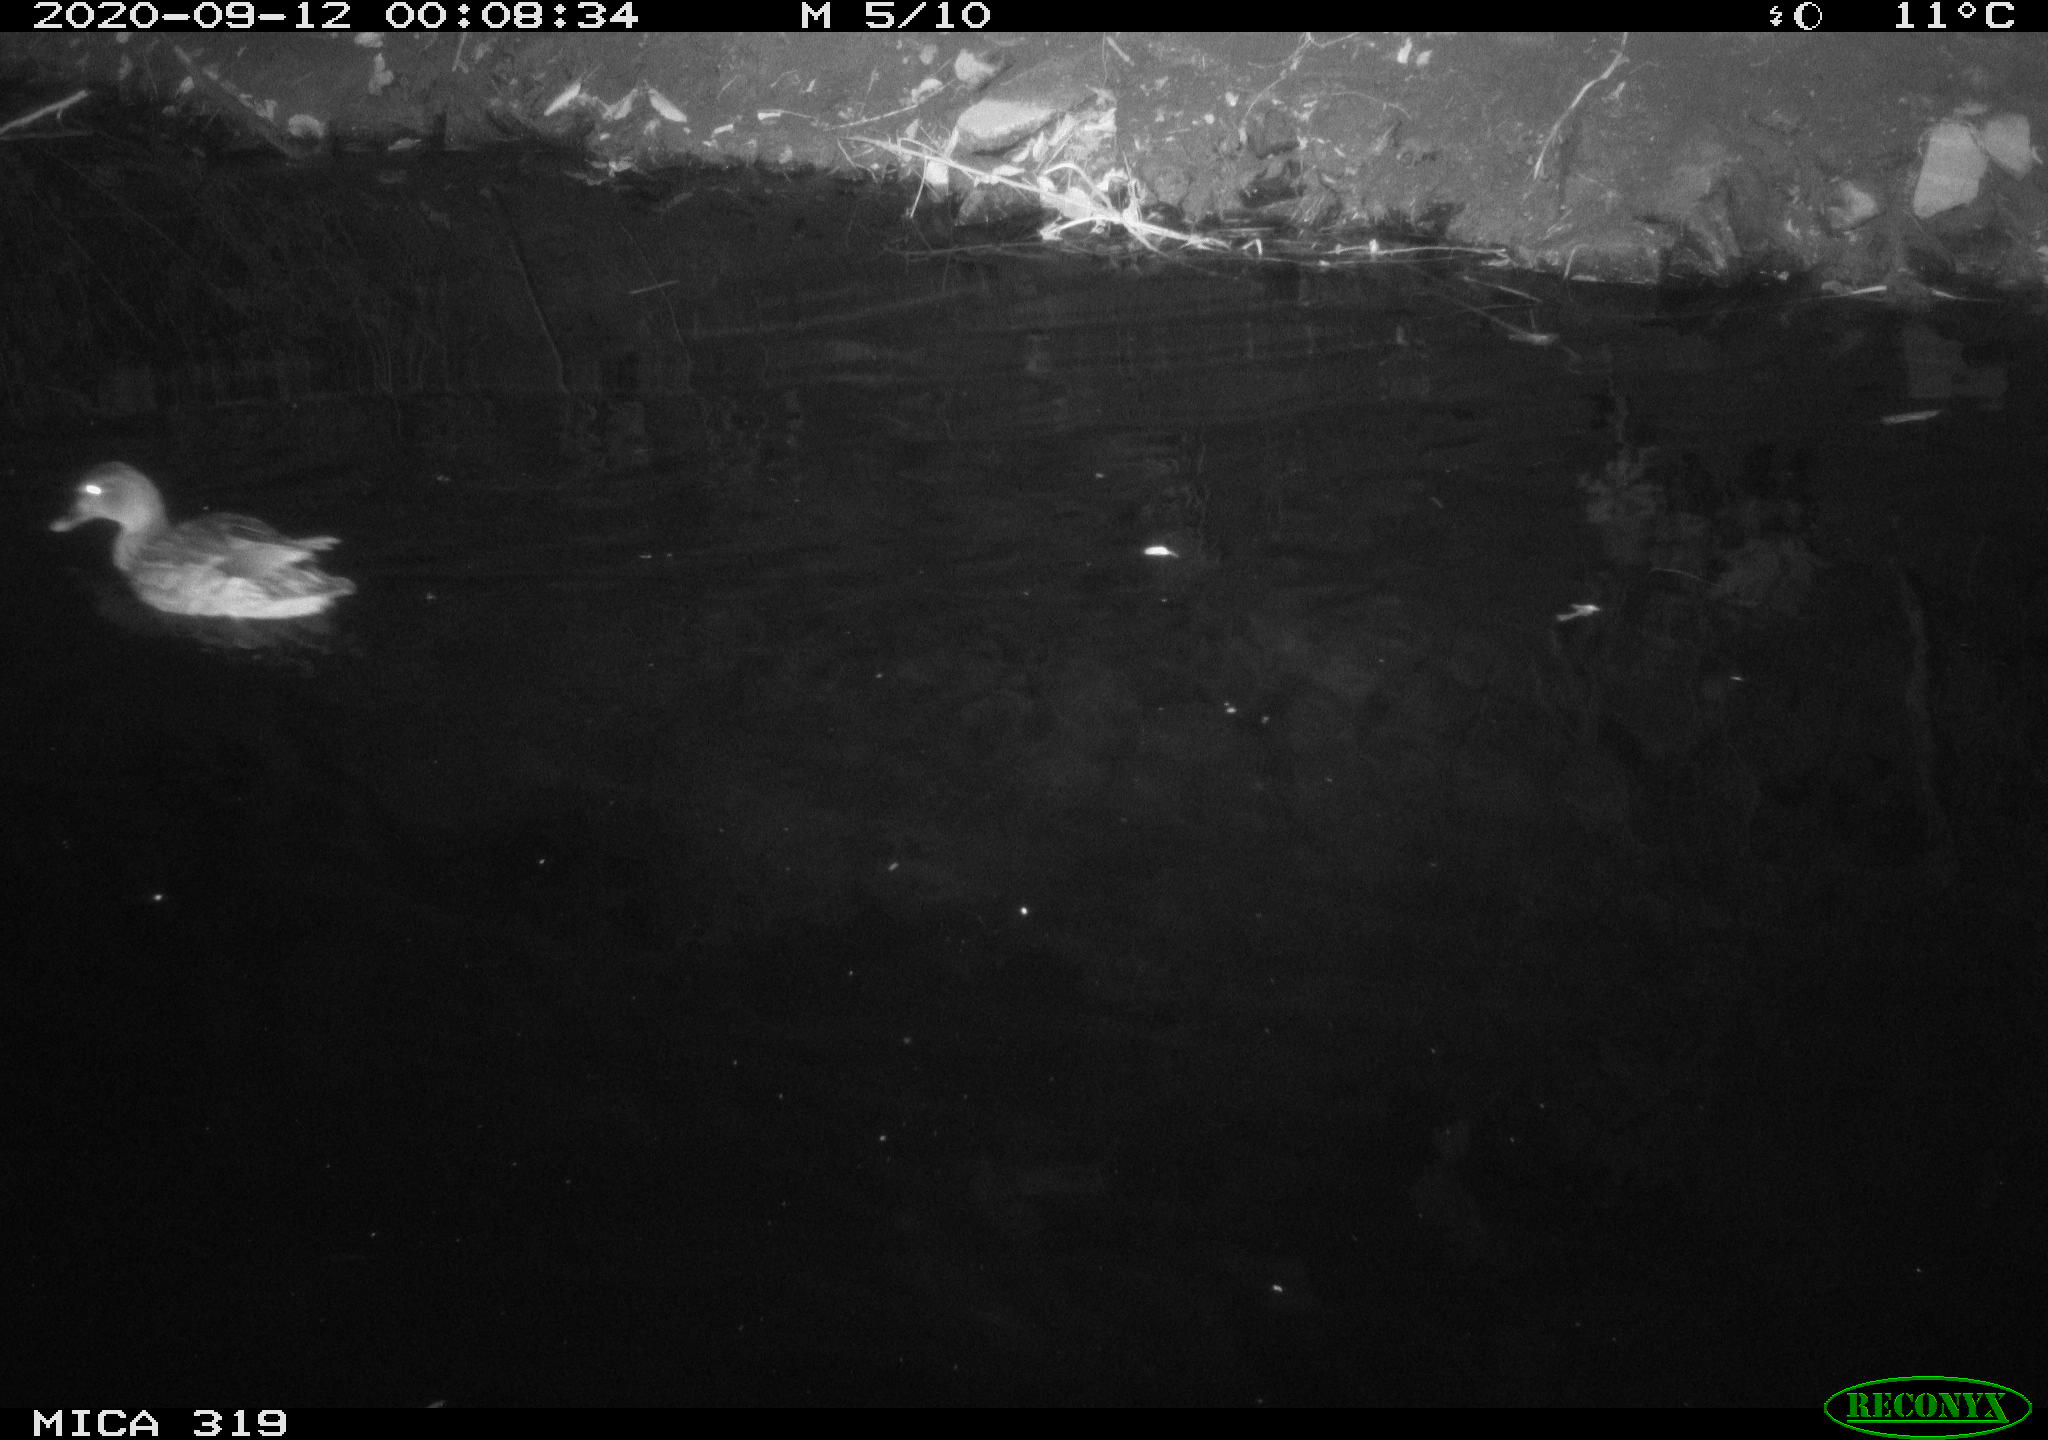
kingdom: Animalia
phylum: Chordata
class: Aves
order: Anseriformes
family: Anatidae
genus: Anas
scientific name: Anas platyrhynchos
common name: Mallard
